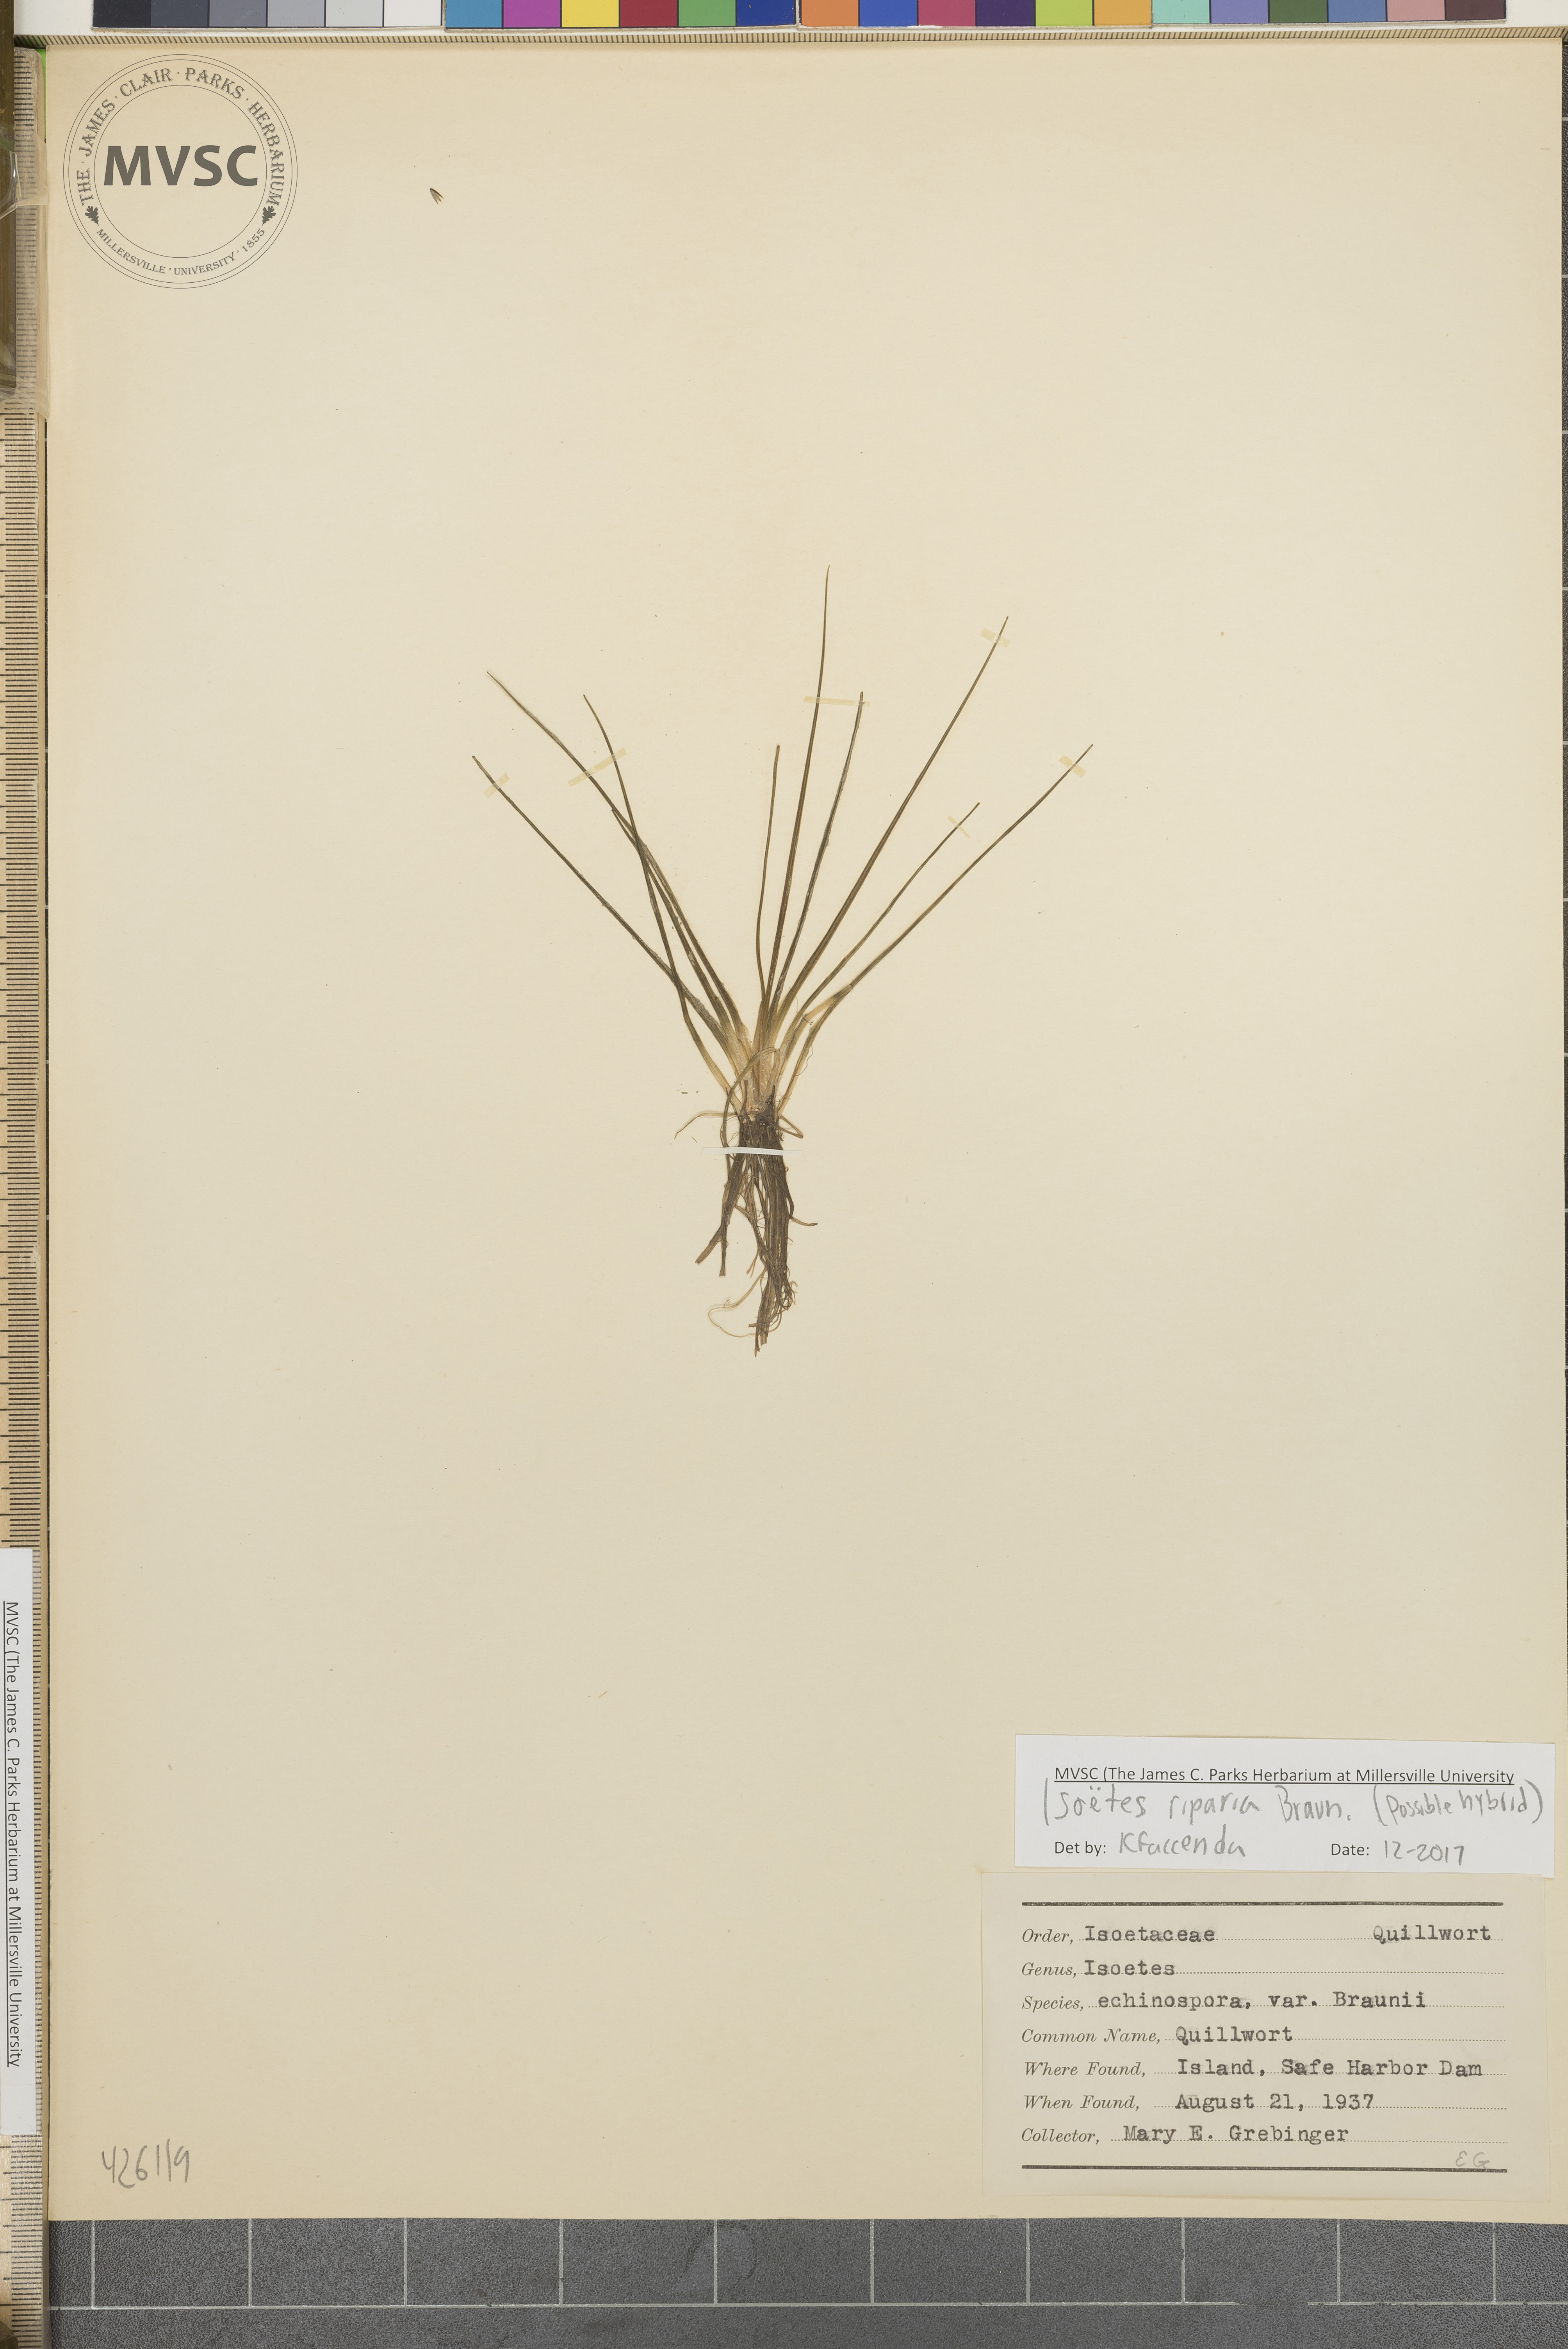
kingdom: Plantae
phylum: Tracheophyta
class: Lycopodiopsida
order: Isoetales
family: Isoetaceae
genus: Isoetes
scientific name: Isoetes riparia
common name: Quillwort
